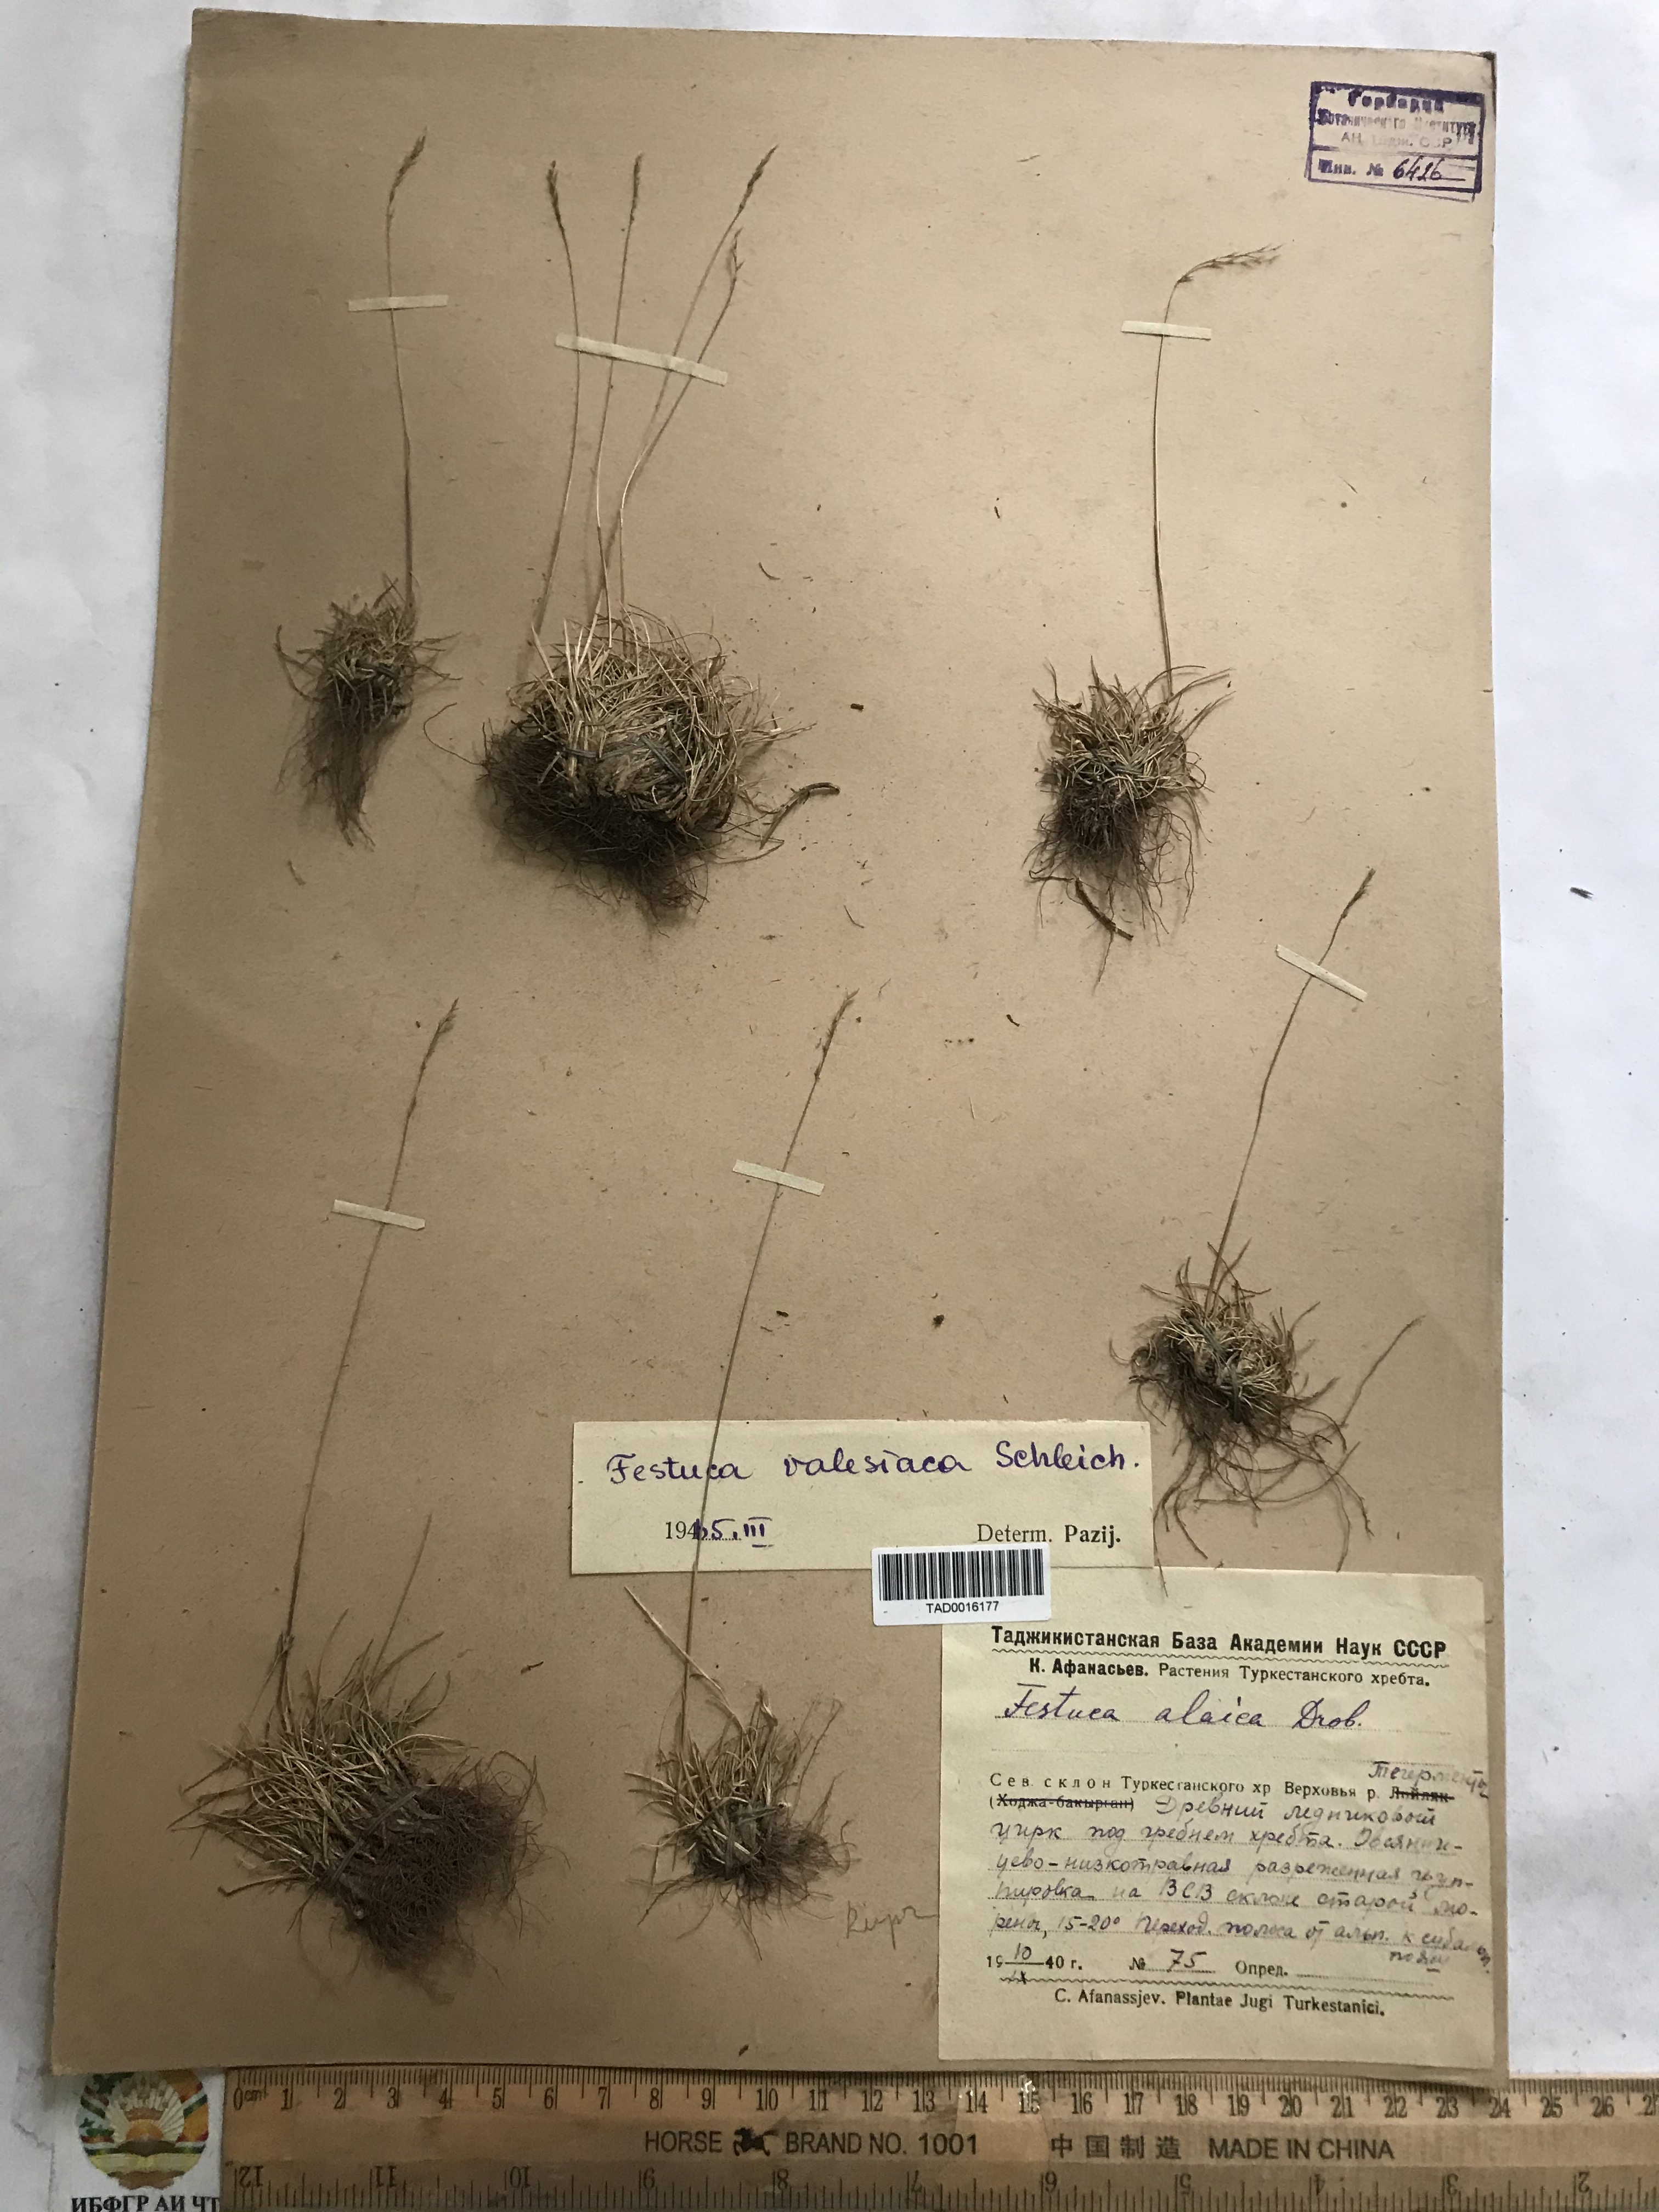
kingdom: Plantae
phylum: Tracheophyta
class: Liliopsida
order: Poales
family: Poaceae
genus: Festuca
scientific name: Festuca valesiaca
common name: Volga fescue
